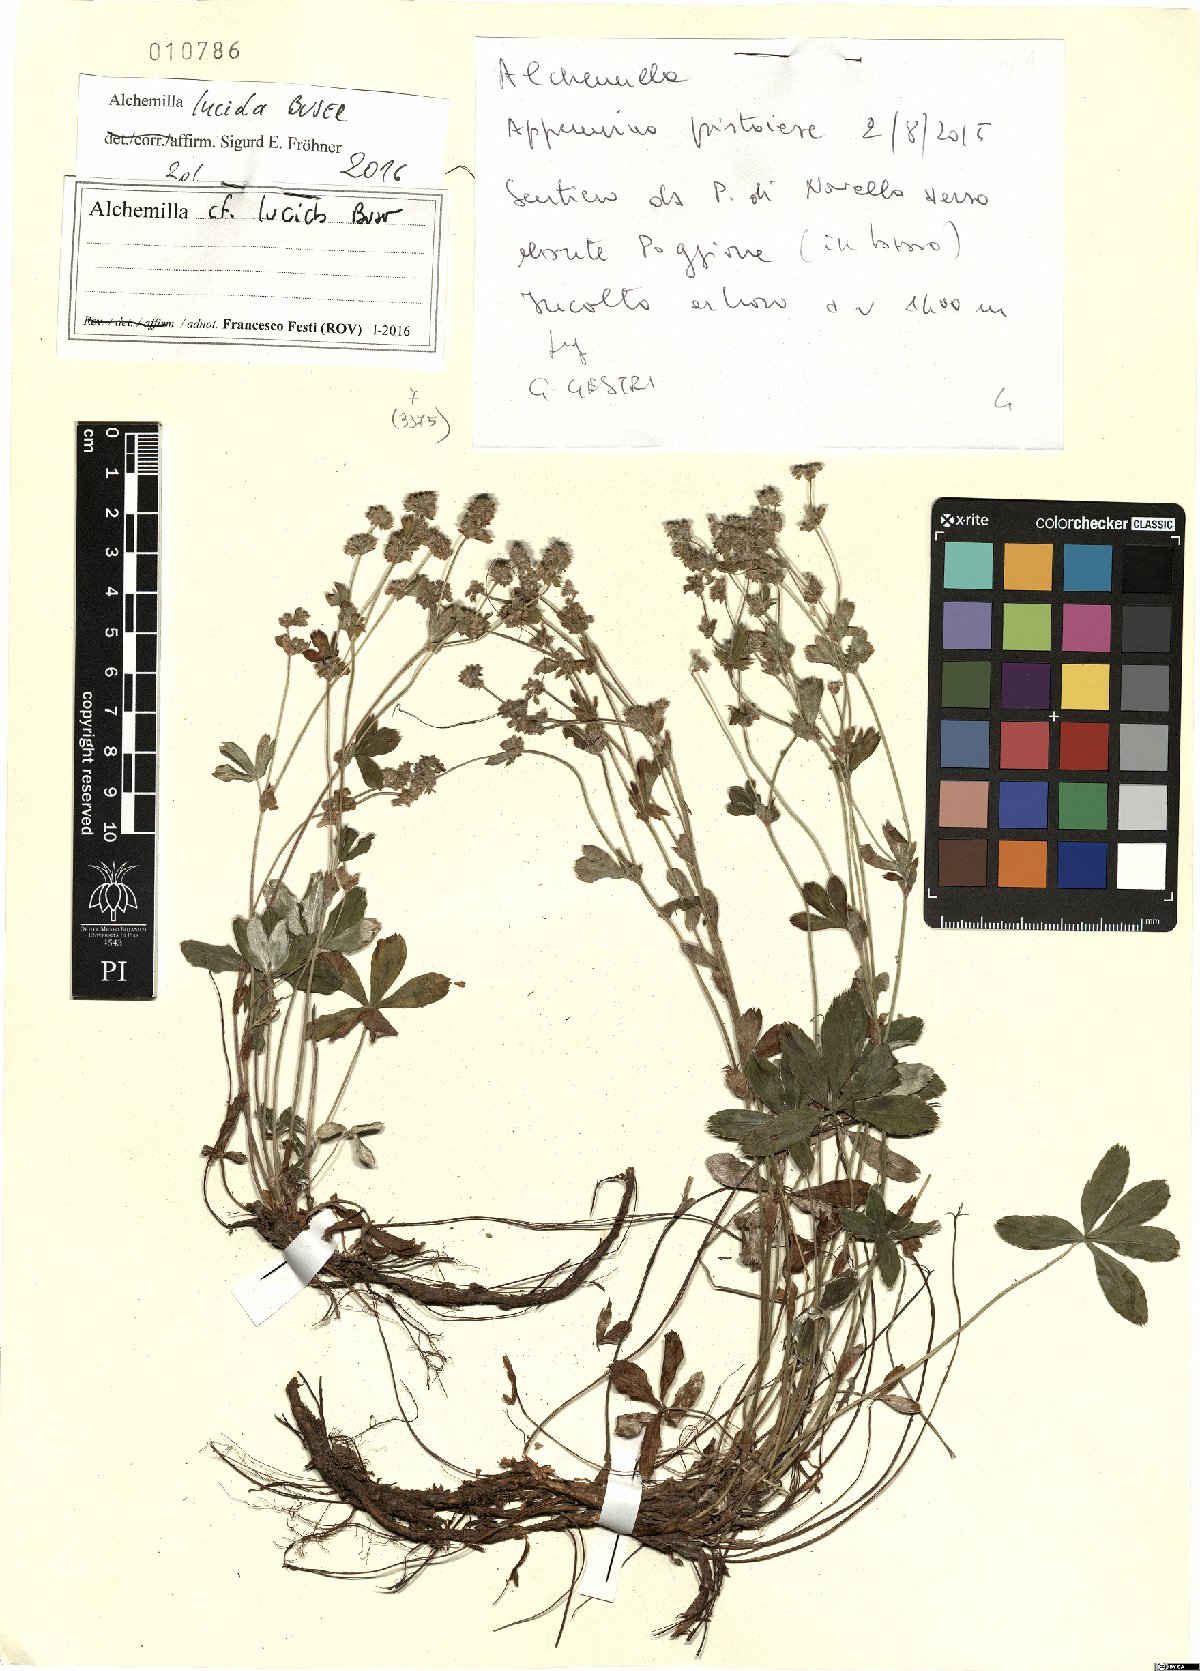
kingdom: Plantae
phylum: Tracheophyta
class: Magnoliopsida
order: Rosales
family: Rosaceae
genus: Alchemilla
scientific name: Alchemilla lucida
